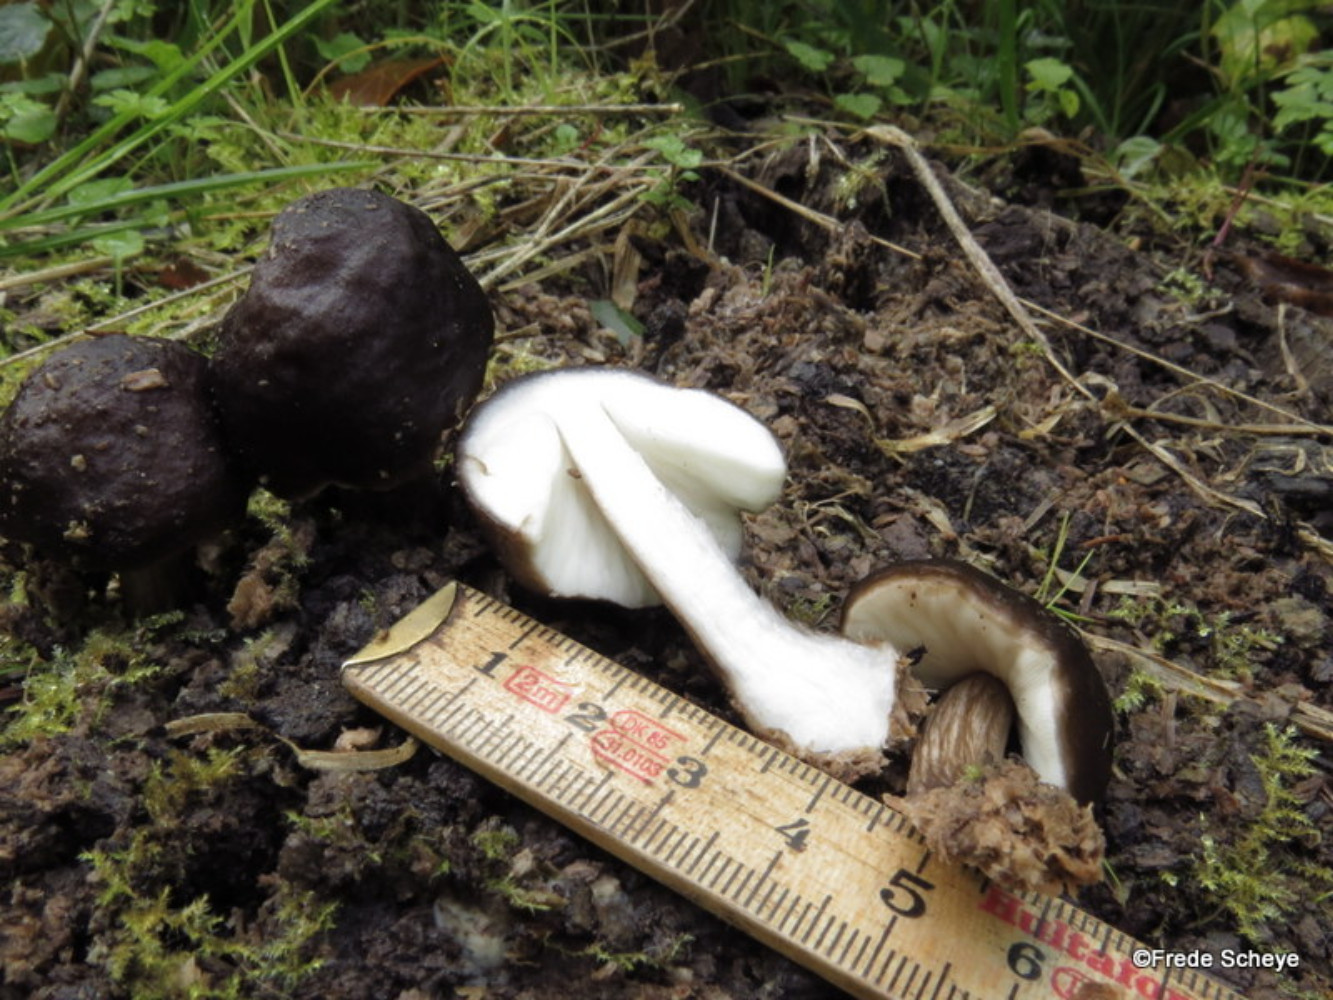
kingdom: Fungi
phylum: Basidiomycota
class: Agaricomycetes
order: Agaricales
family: Pluteaceae
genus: Pluteus
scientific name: Pluteus cervinus
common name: sodfarvet skærmhat
